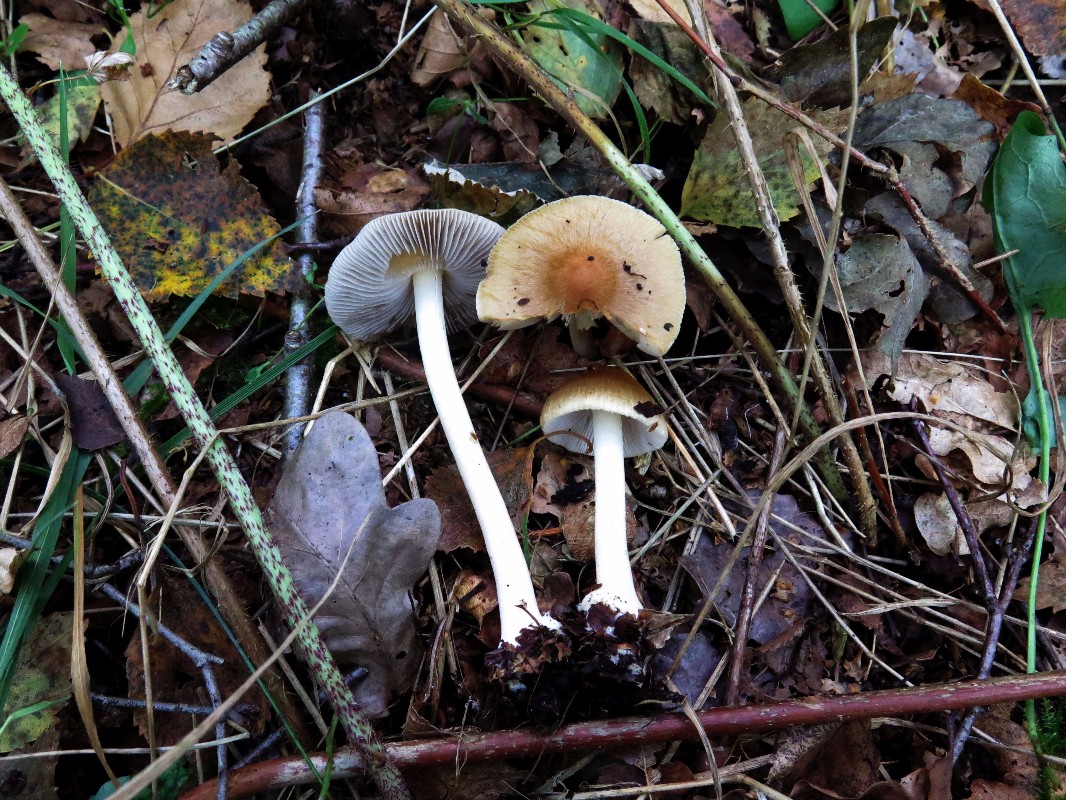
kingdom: Fungi
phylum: Basidiomycota
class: Agaricomycetes
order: Agaricales
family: Inocybaceae
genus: Inocybe
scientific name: Inocybe mixtilis
